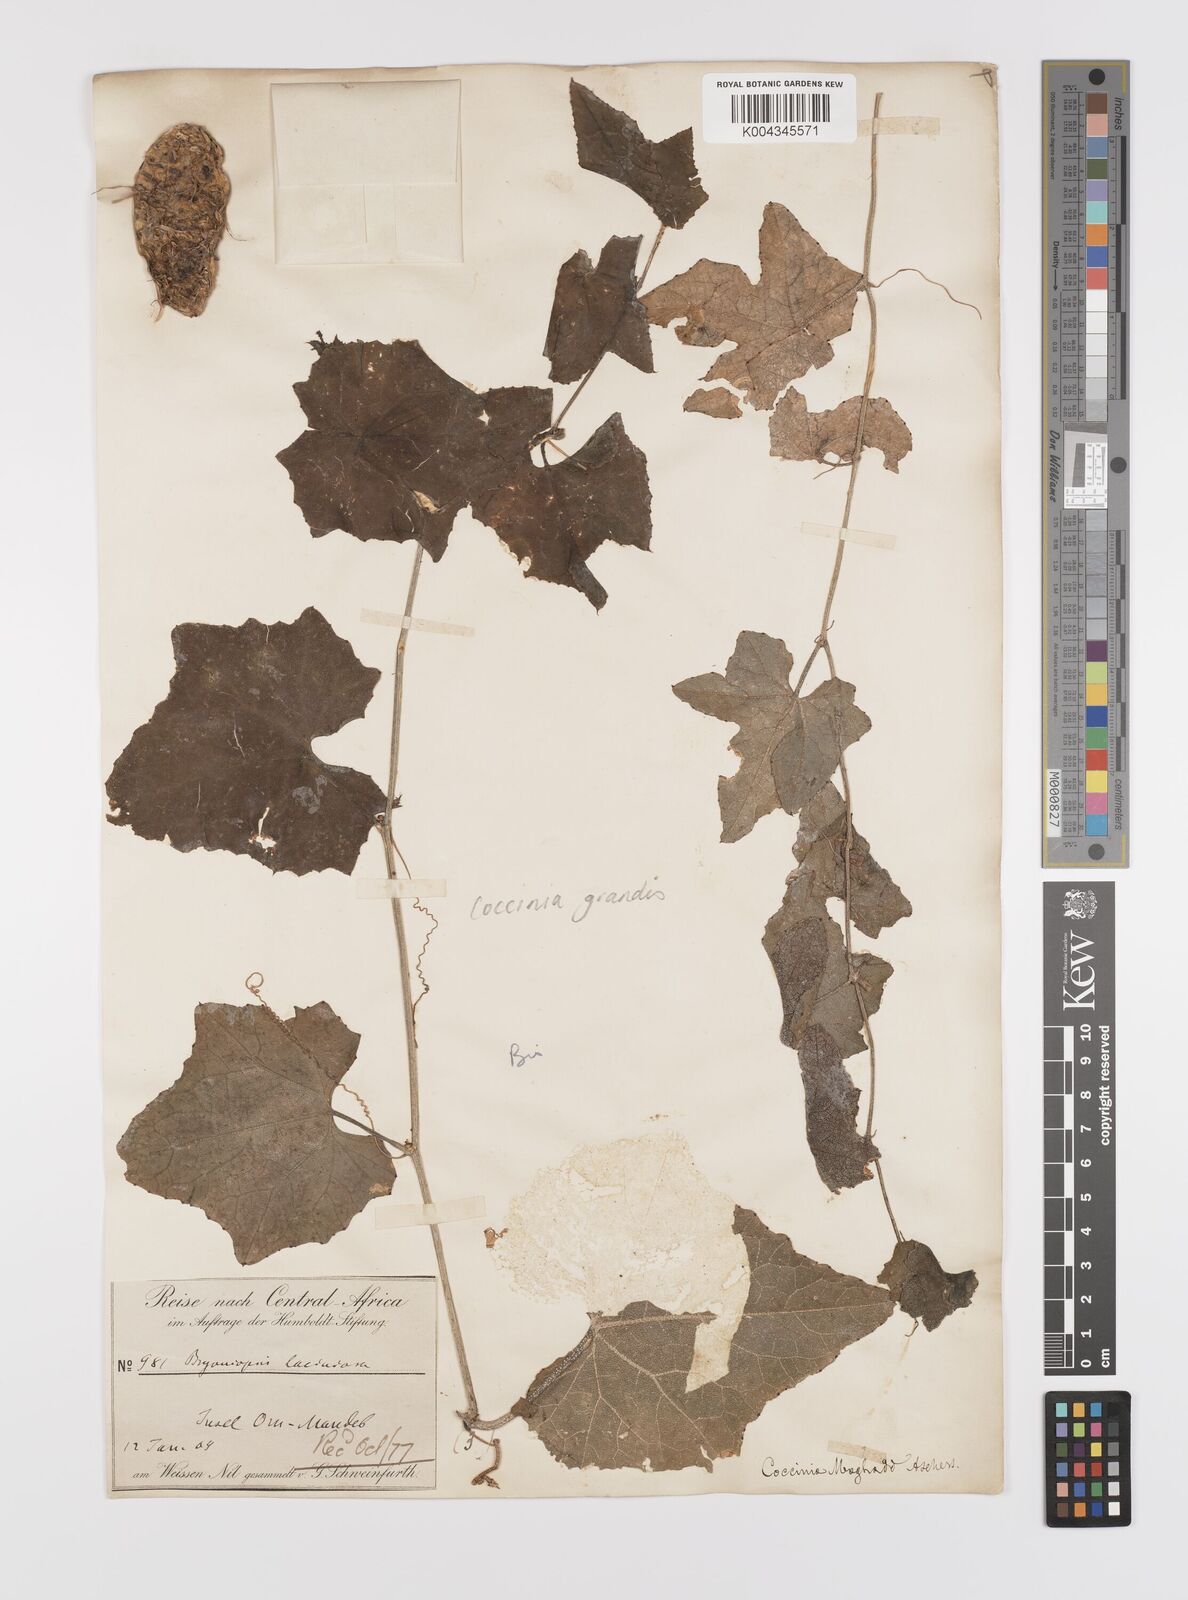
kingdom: Plantae
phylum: Tracheophyta
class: Magnoliopsida
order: Cucurbitales
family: Cucurbitaceae
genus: Coccinia
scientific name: Coccinia grandis
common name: Ivy gourd
